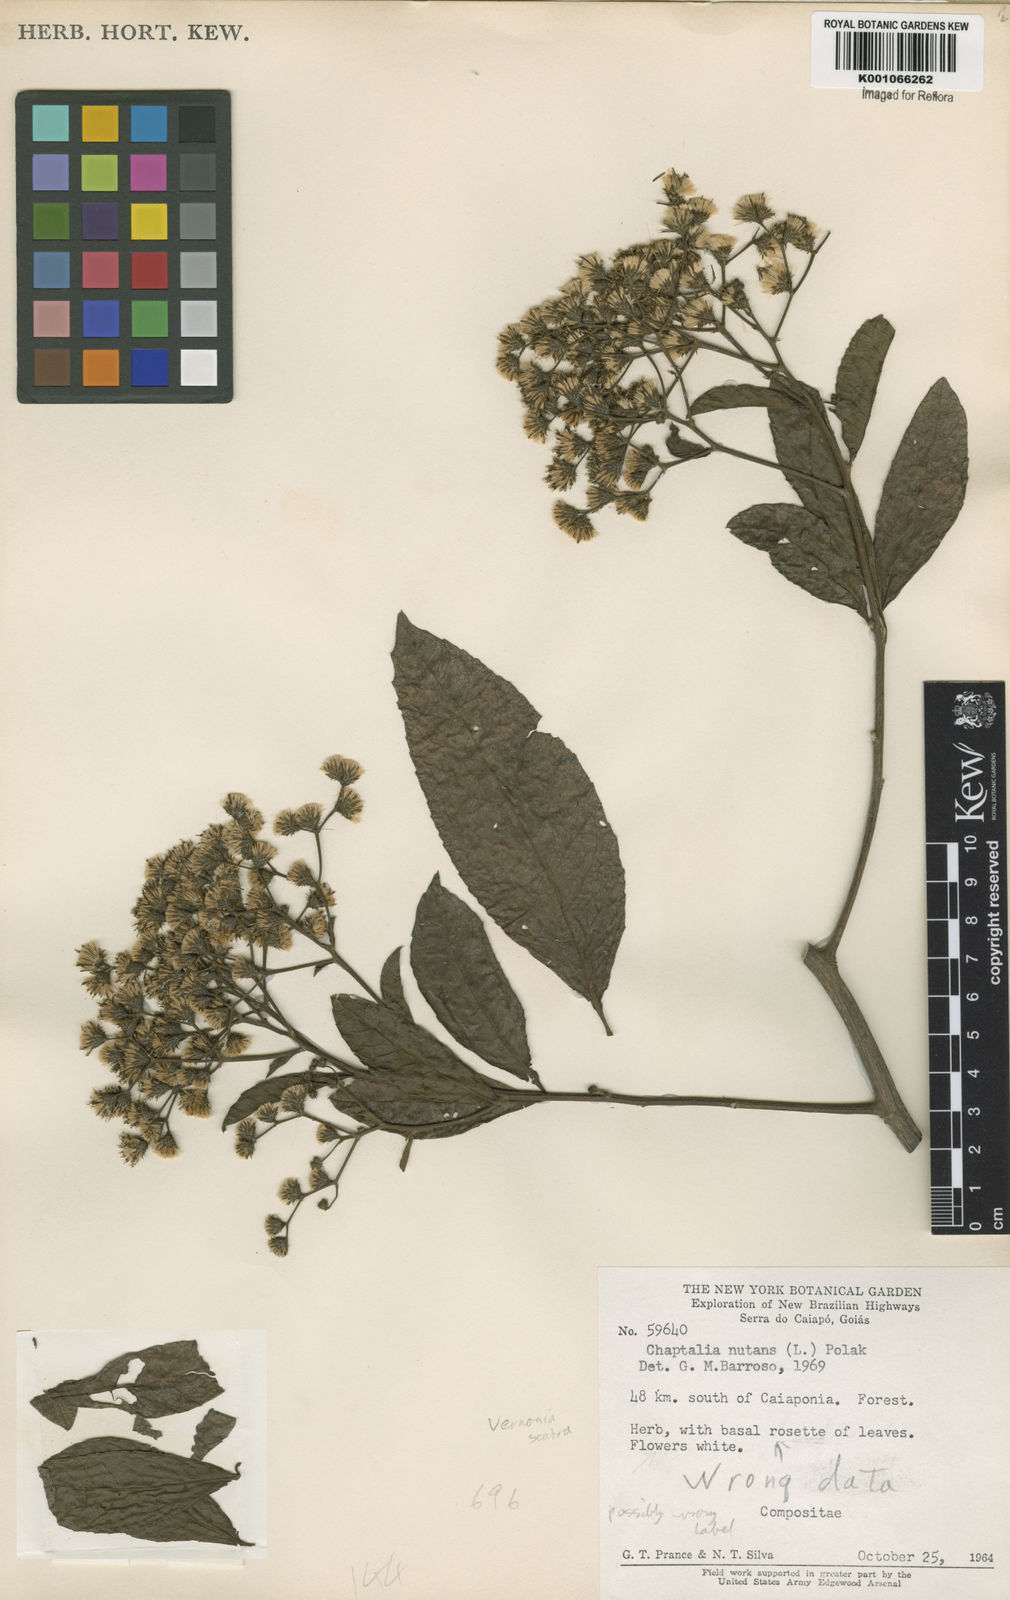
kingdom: Plantae
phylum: Tracheophyta
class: Magnoliopsida
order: Asterales
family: Asteraceae
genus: Vernonia
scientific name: Vernonia
